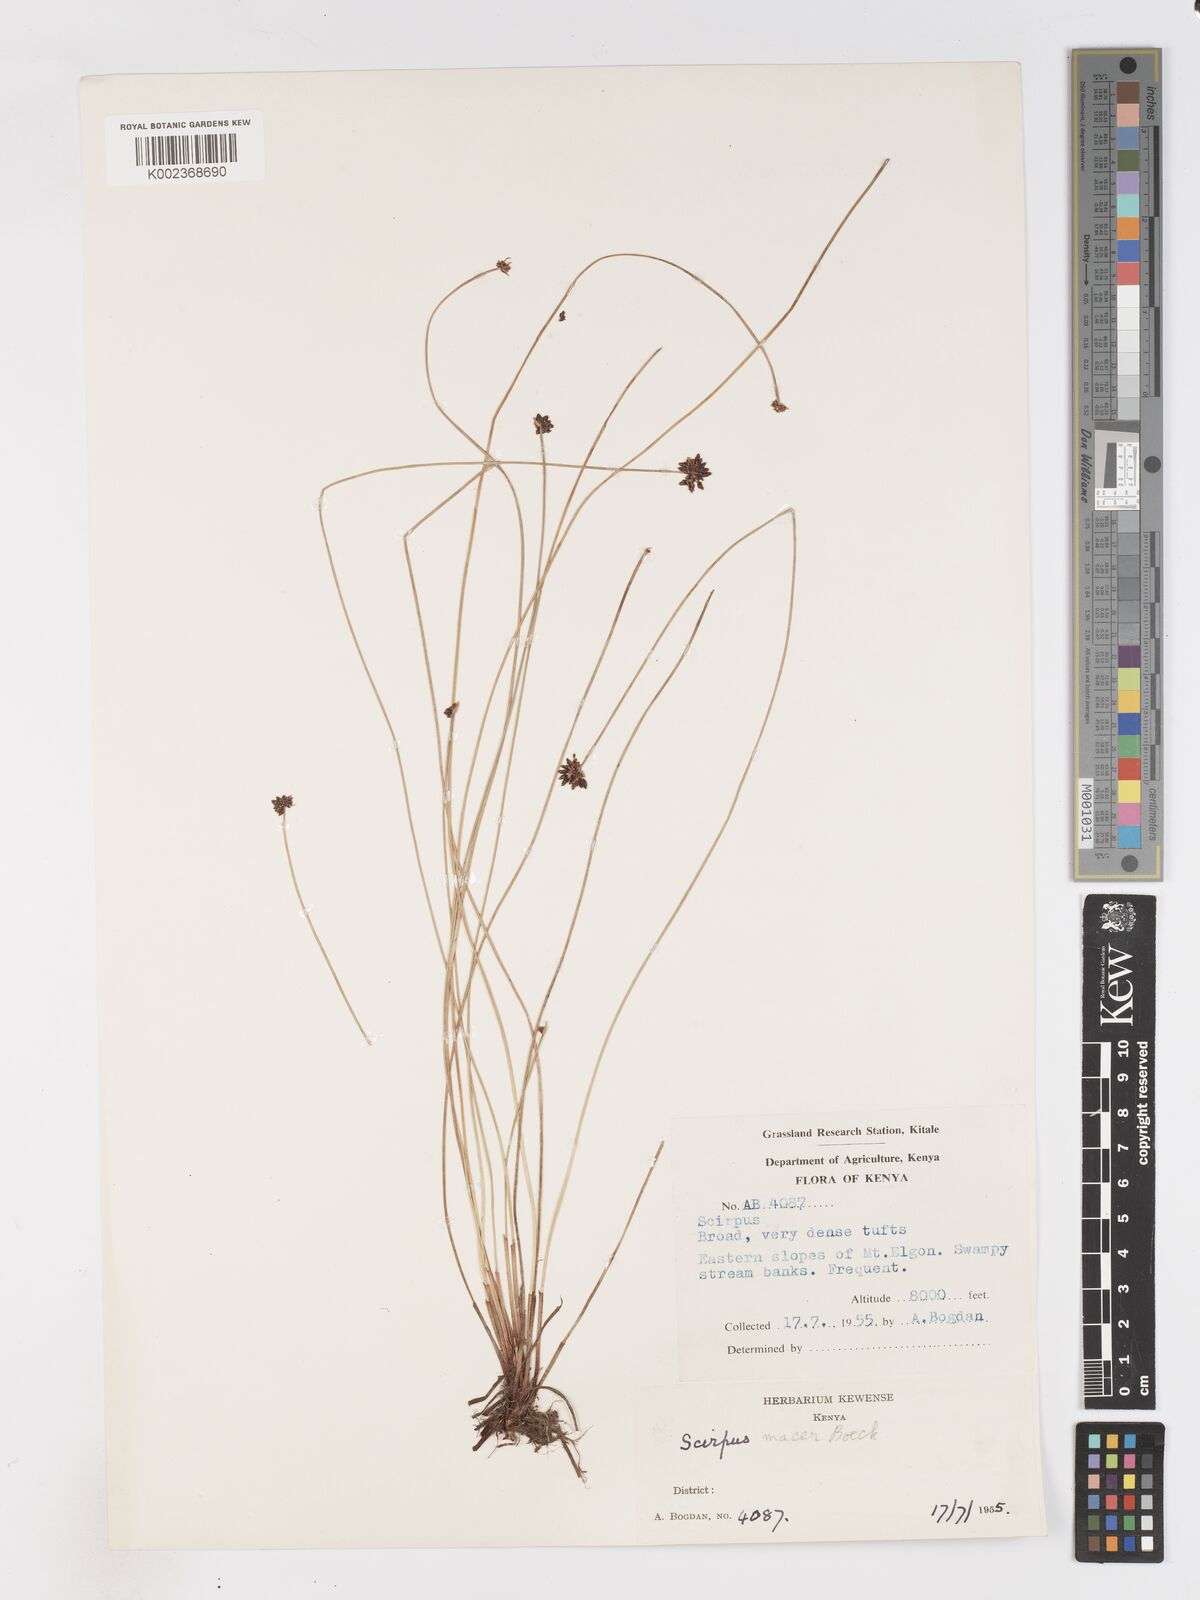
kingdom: Plantae
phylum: Tracheophyta
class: Liliopsida
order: Poales
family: Cyperaceae
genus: Isolepis
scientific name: Isolepis costata
